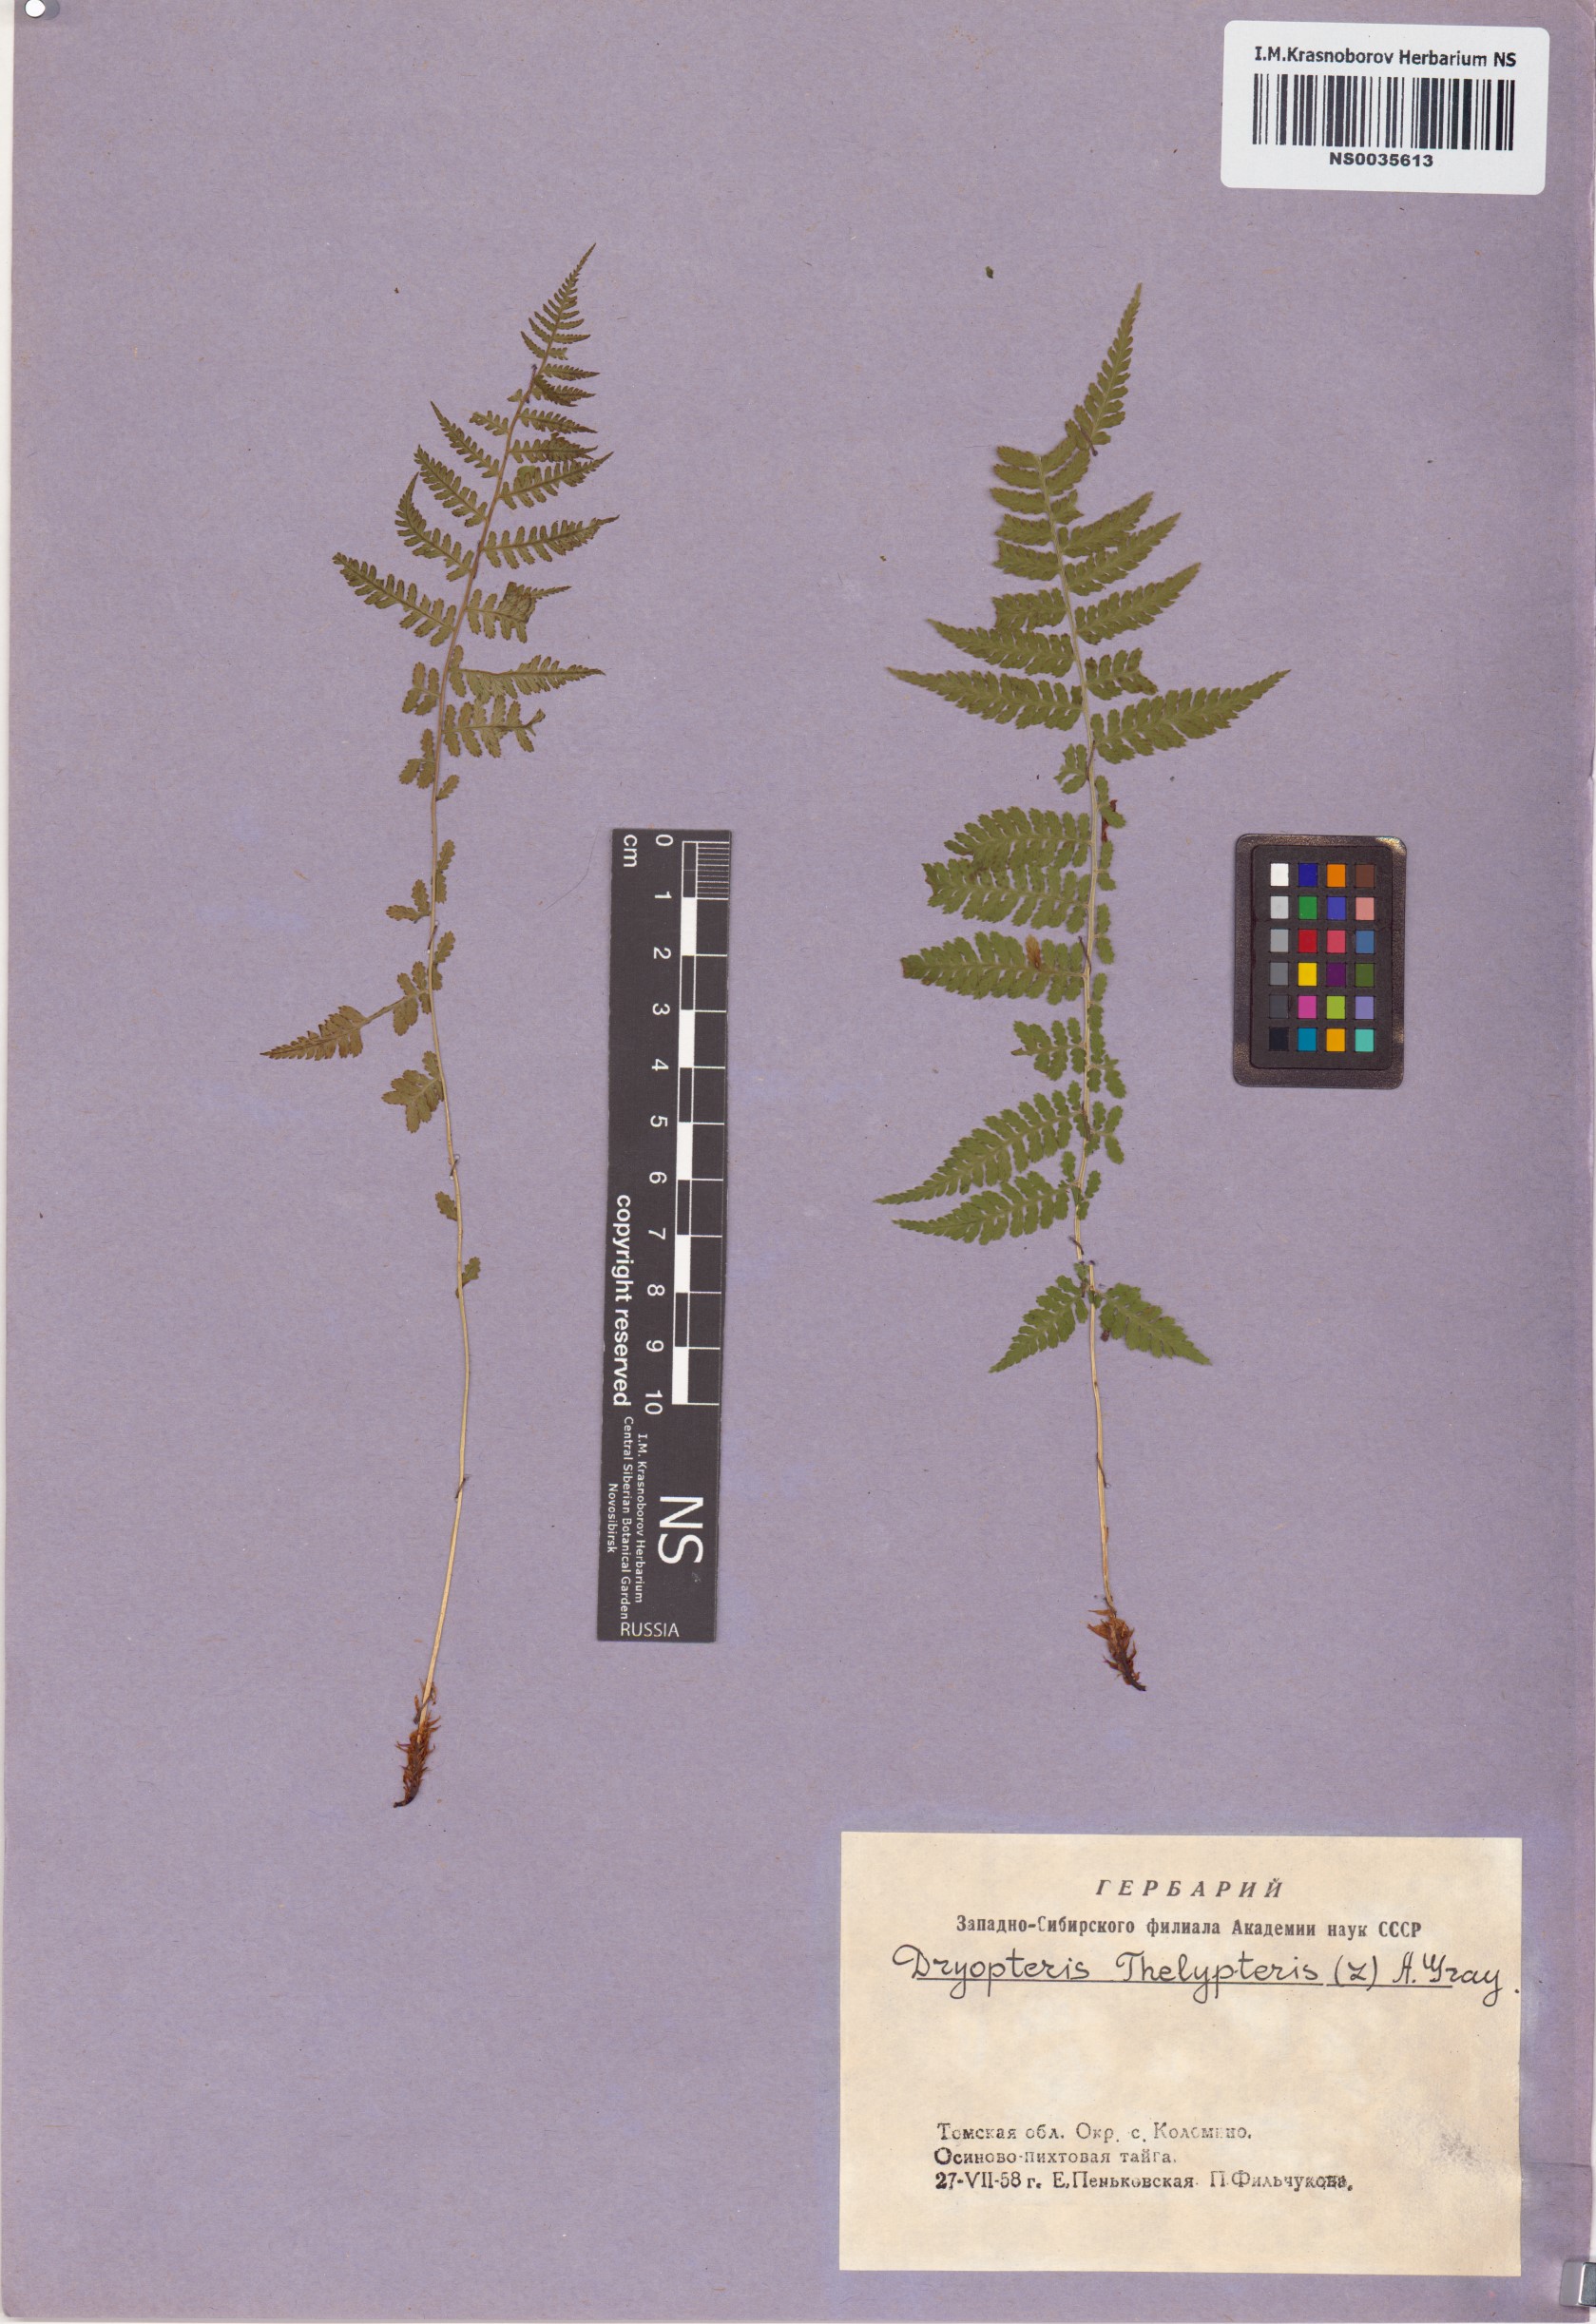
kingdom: Plantae
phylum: Tracheophyta
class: Polypodiopsida
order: Polypodiales
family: Thelypteridaceae
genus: Thelypteris
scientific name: Thelypteris palustris
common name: Marsh fern
